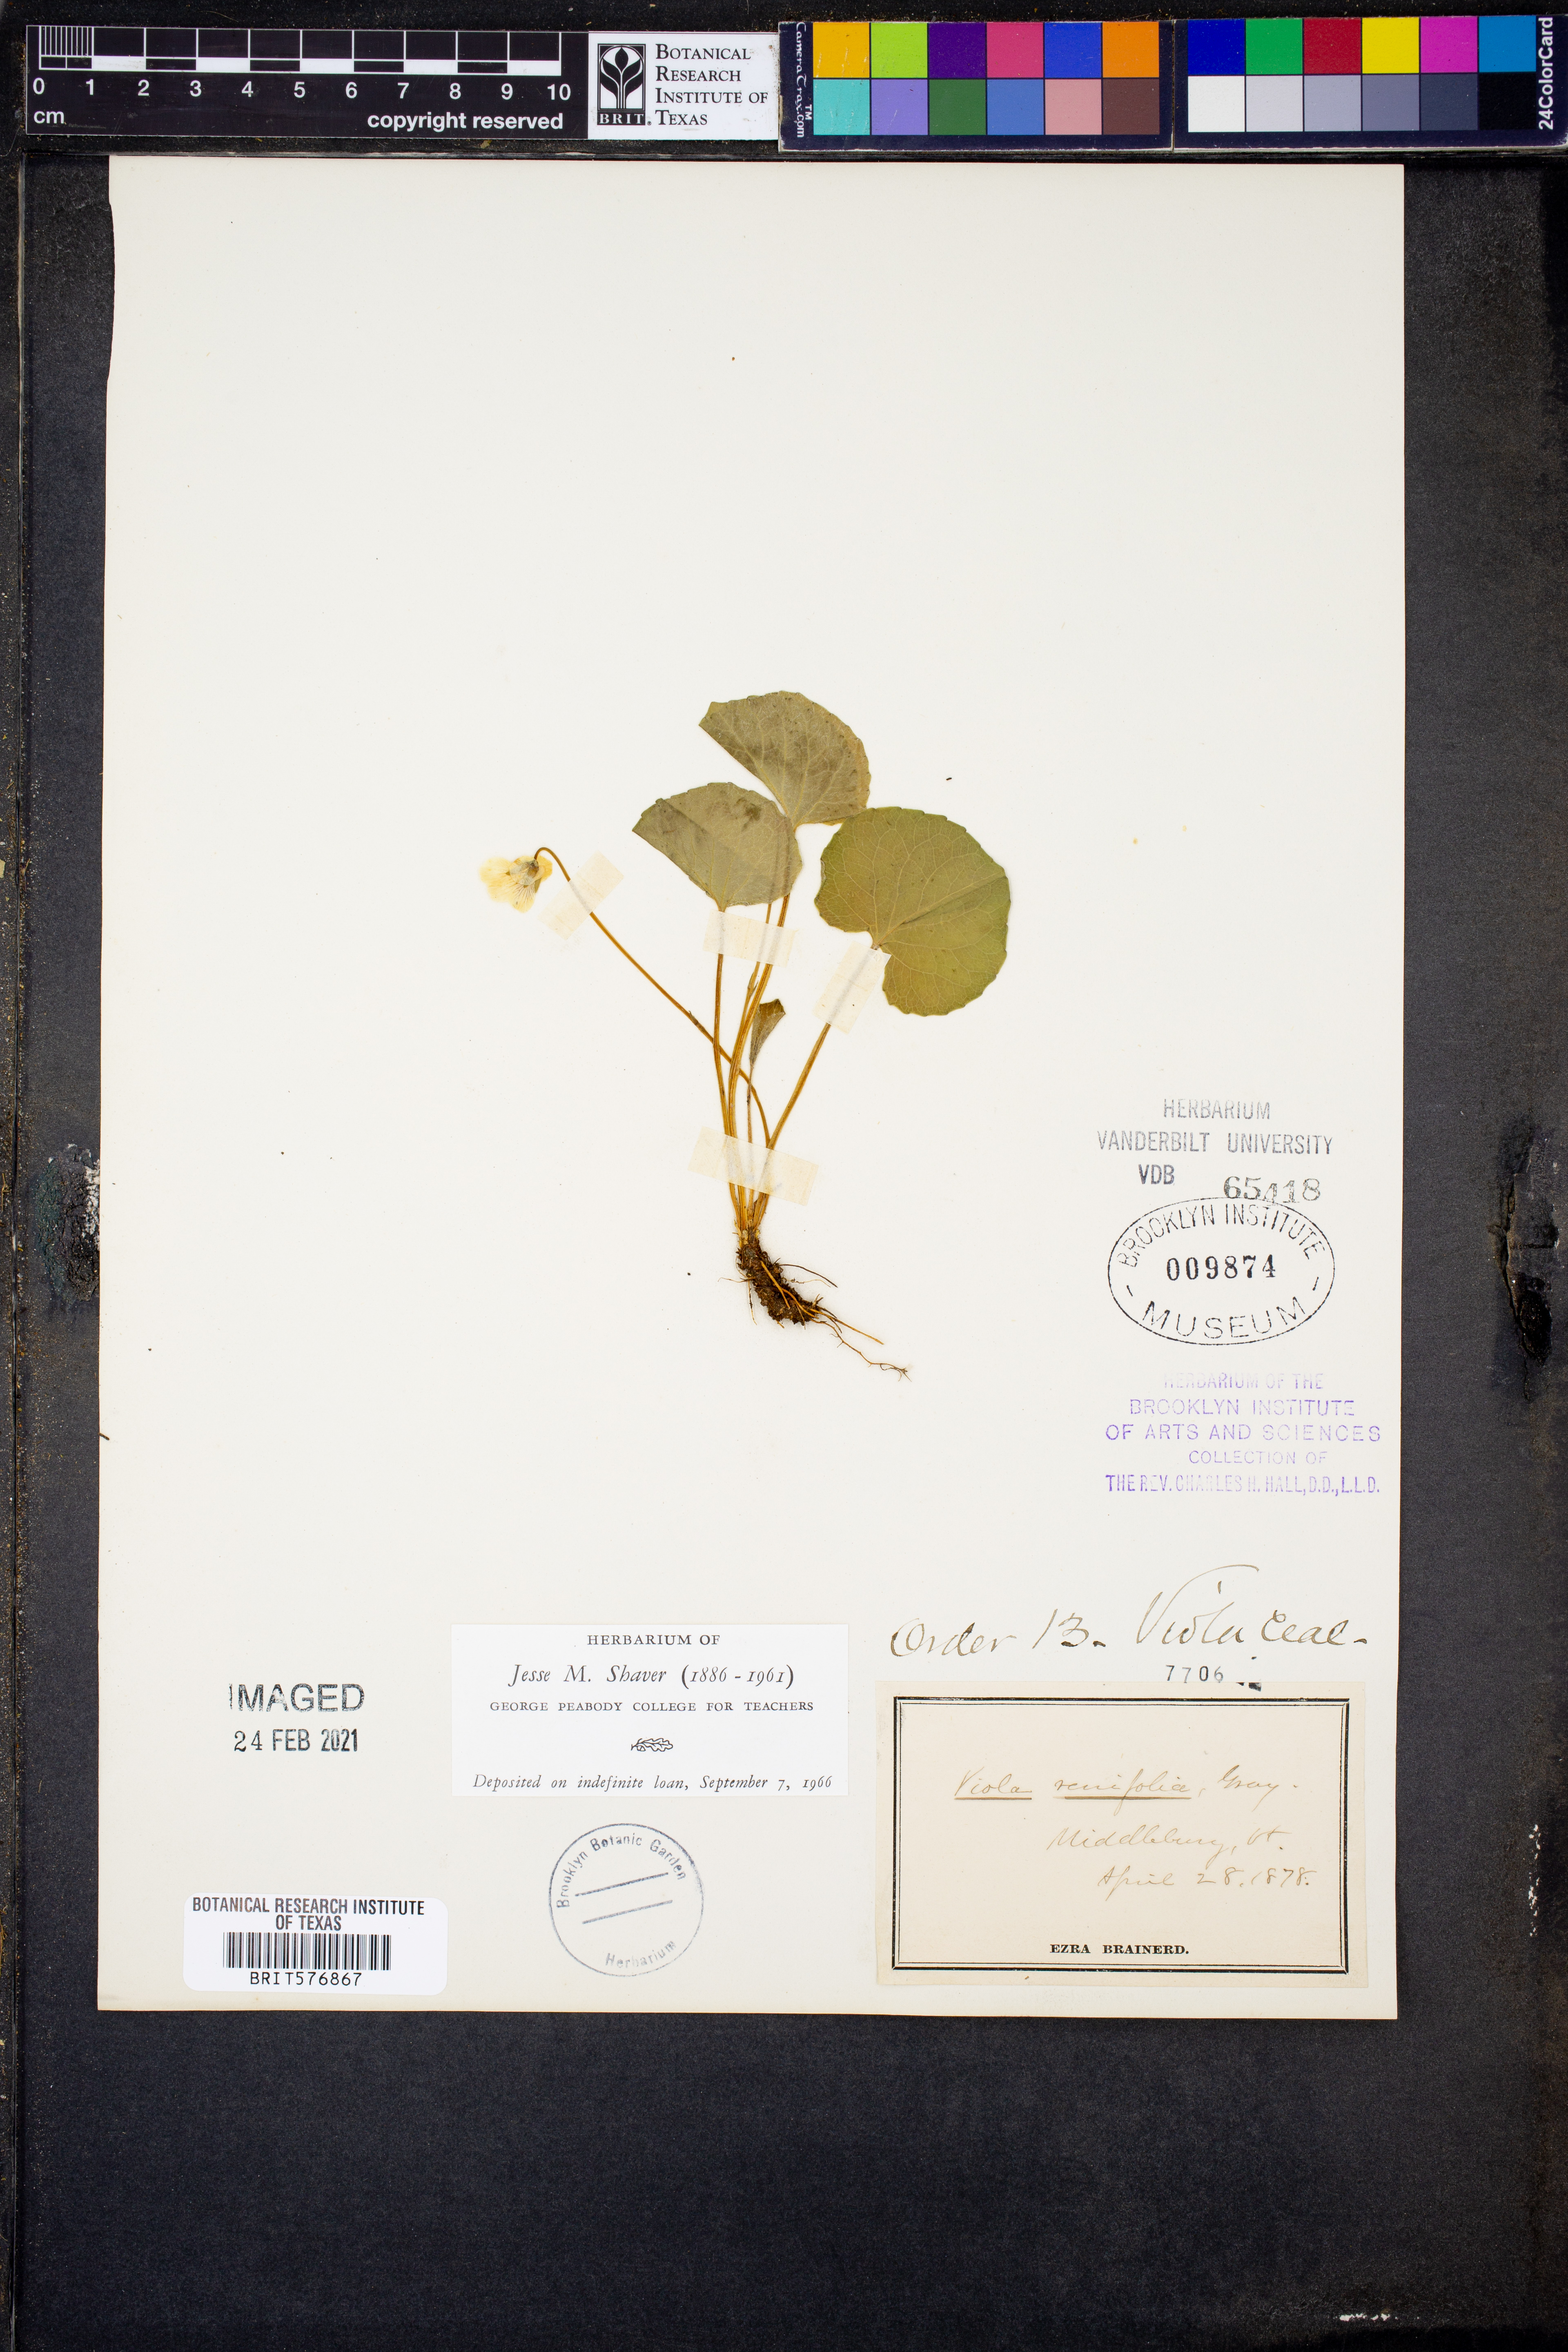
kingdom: Plantae
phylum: Tracheophyta
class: Magnoliopsida
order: Malpighiales
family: Violaceae
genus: Viola
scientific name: Viola renifolia
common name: Kidney-leaf violet
